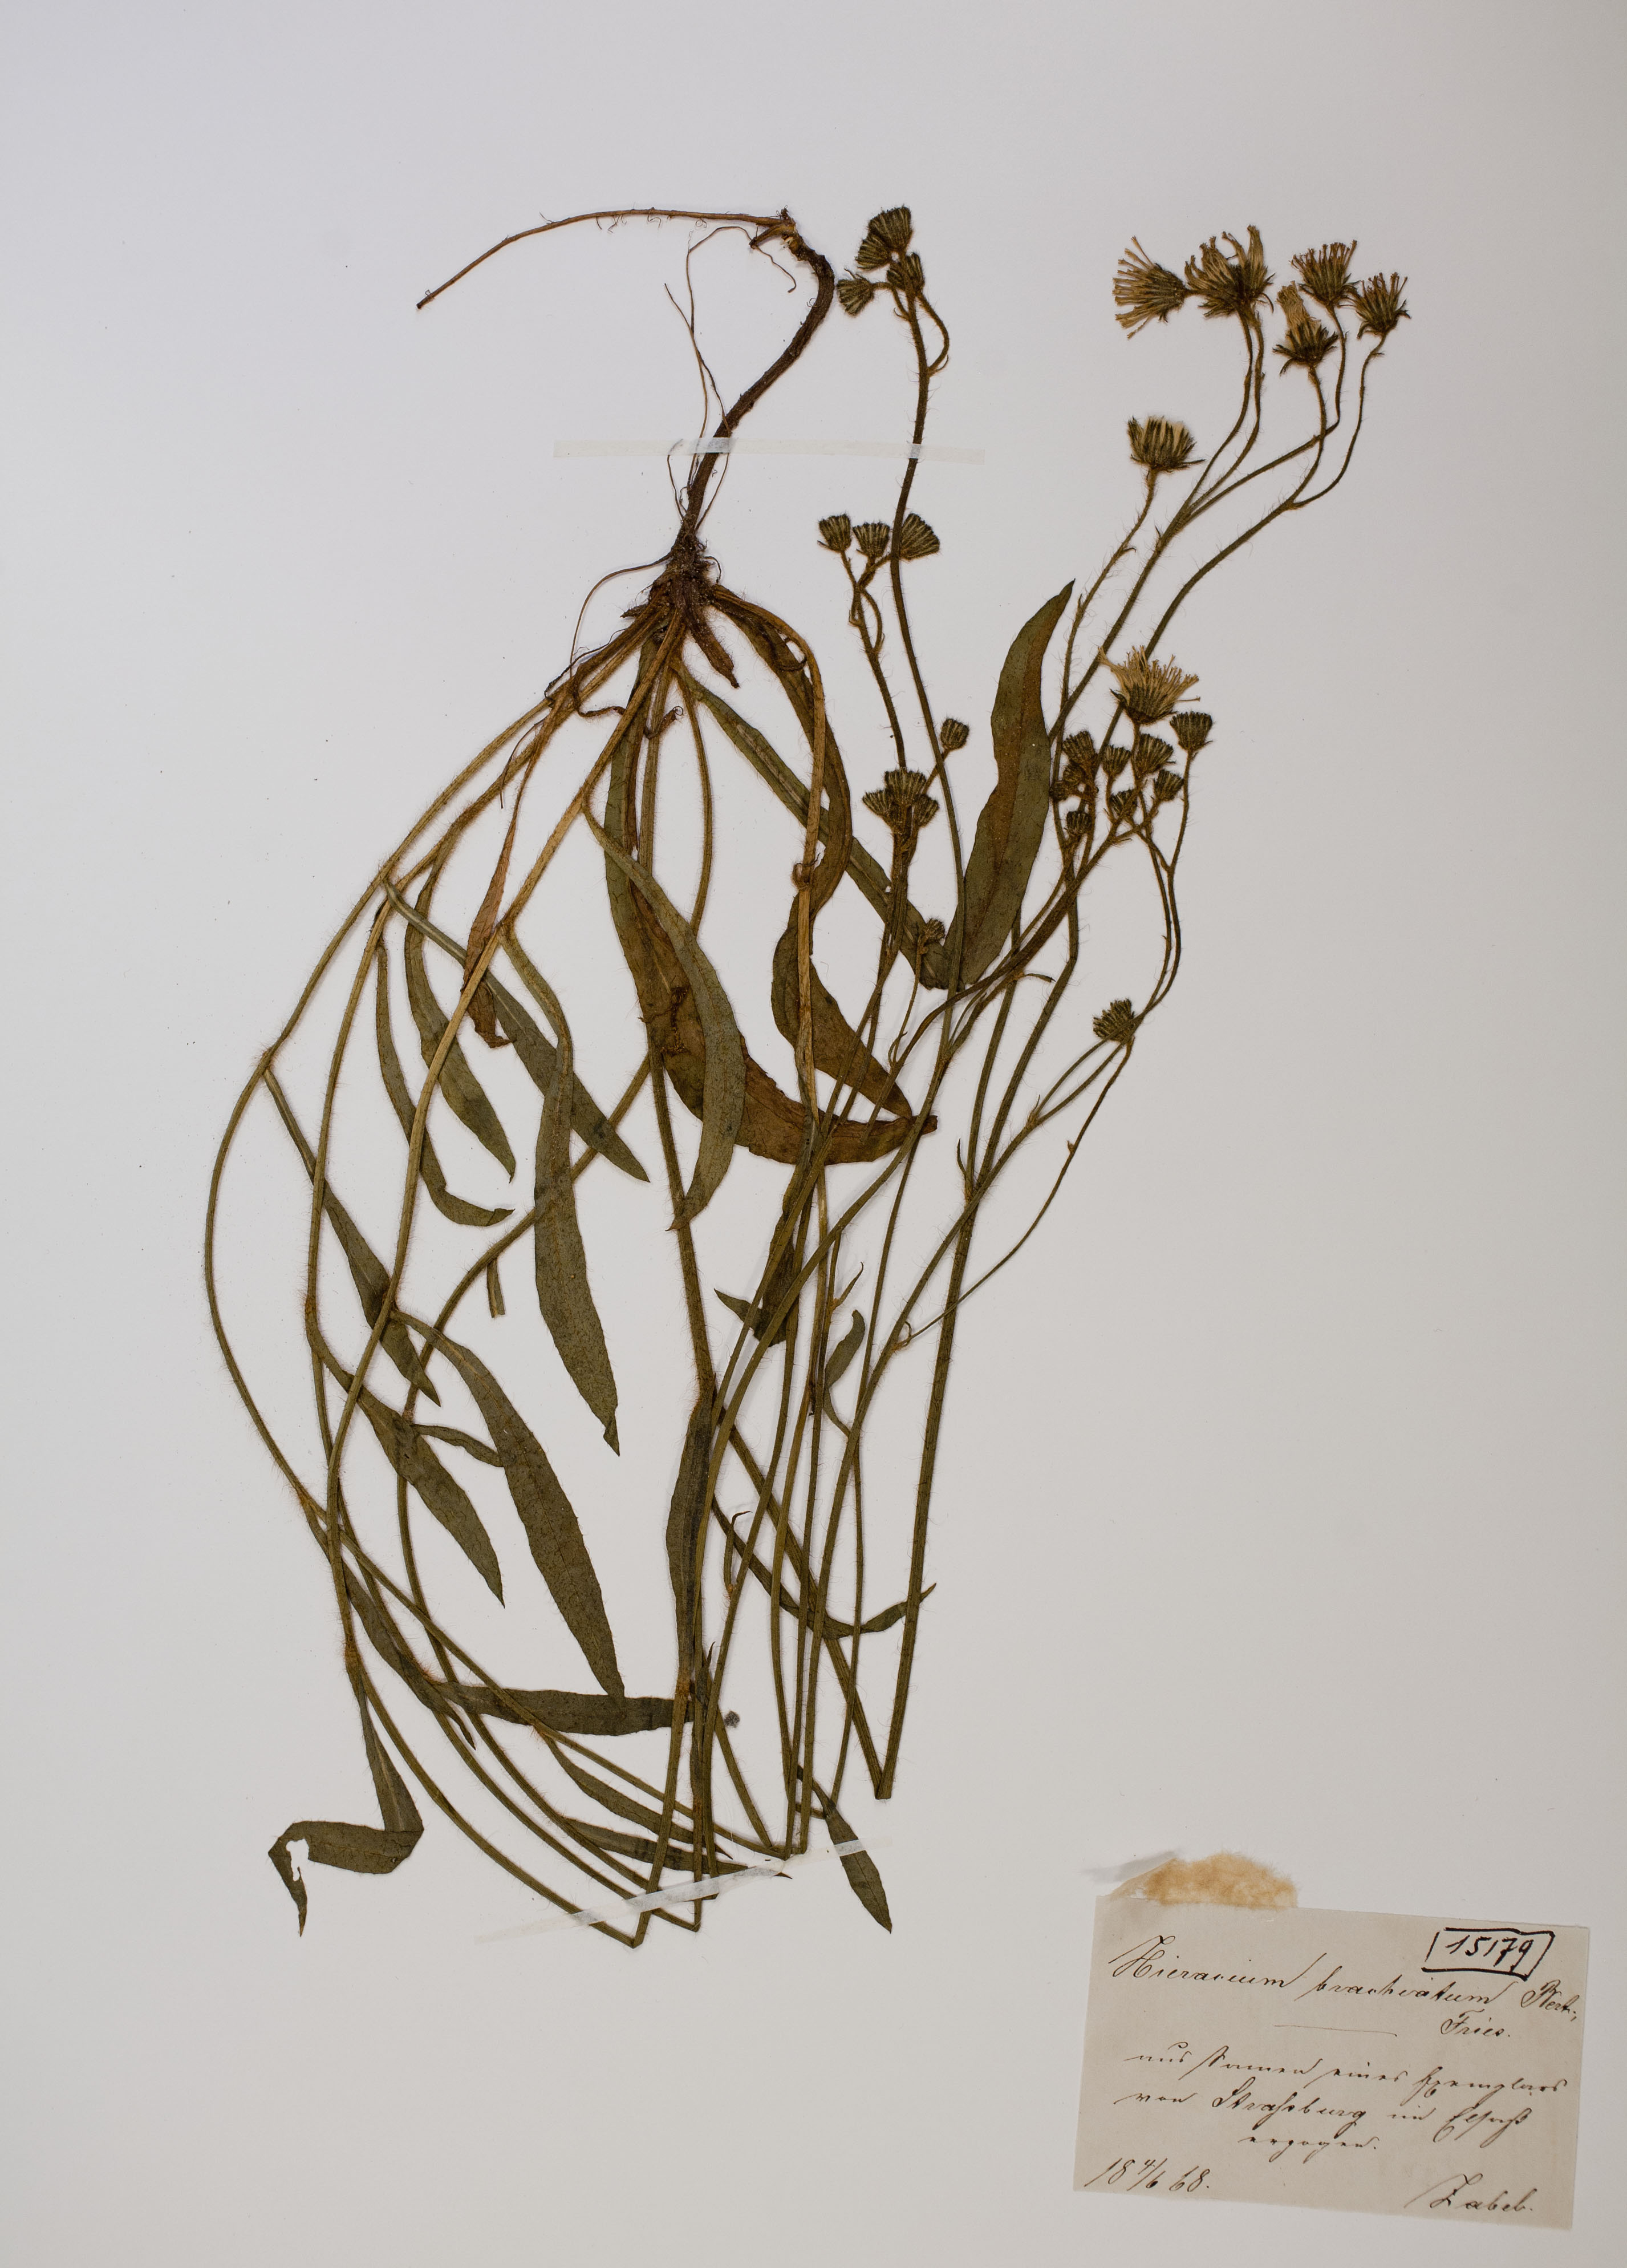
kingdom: Plantae
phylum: Tracheophyta
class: Magnoliopsida
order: Asterales
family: Asteraceae
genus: Pilosella
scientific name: Pilosella acutifolia
